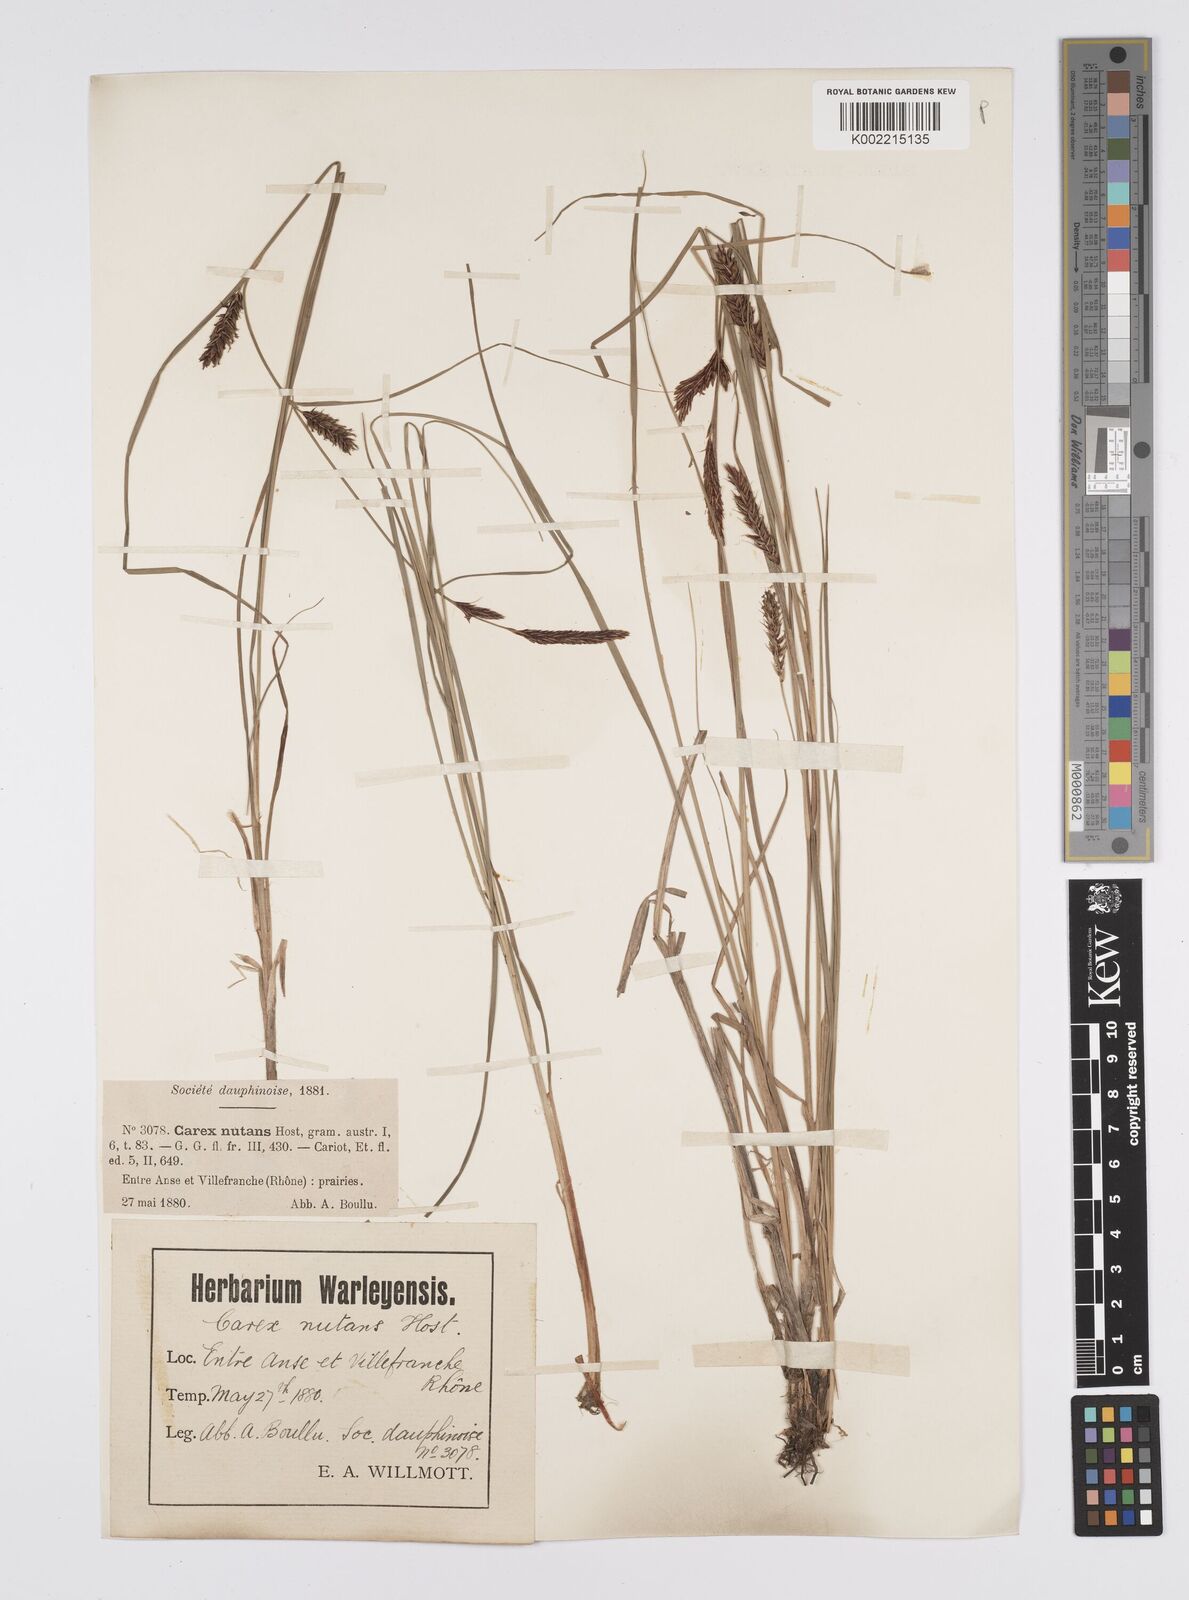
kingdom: Plantae
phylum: Tracheophyta
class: Liliopsida
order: Poales
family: Cyperaceae
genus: Carex
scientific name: Carex melanostachya
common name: Black-spiked sedge
